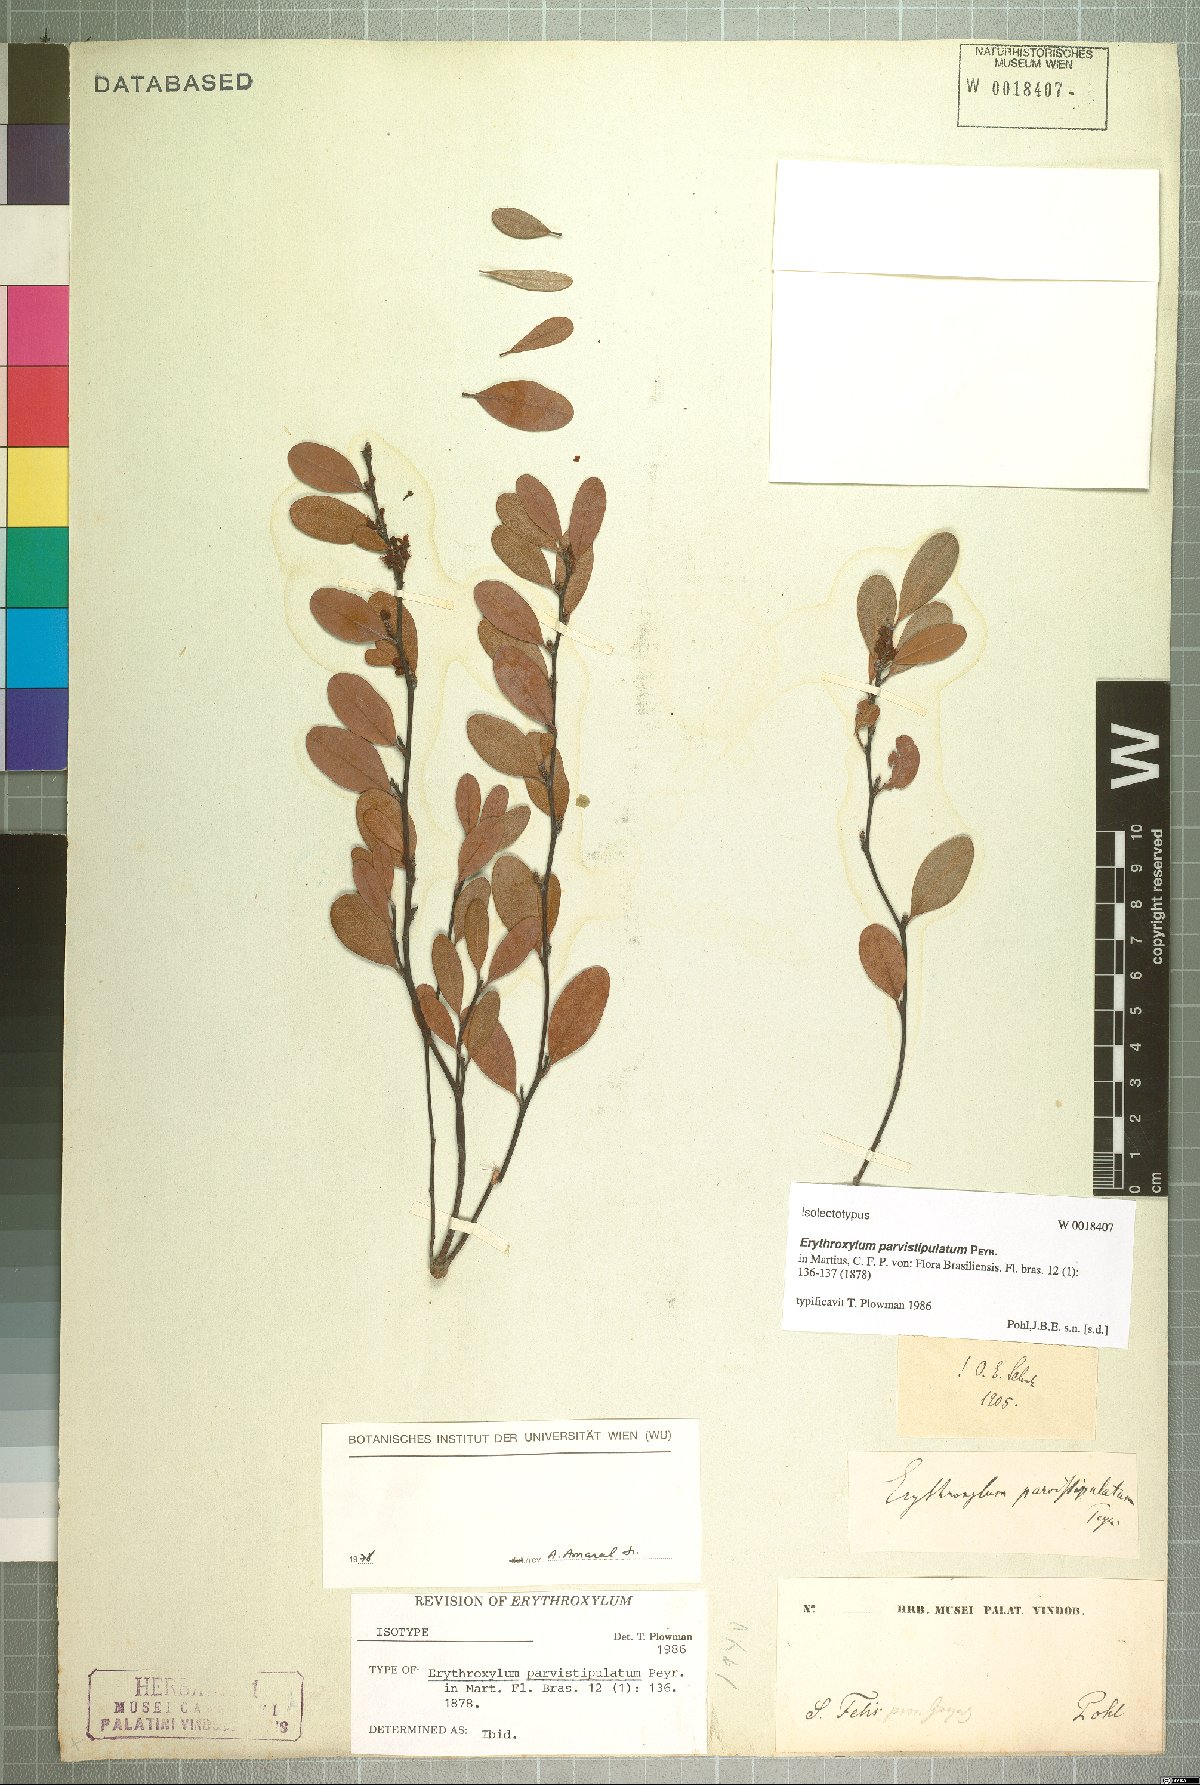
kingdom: Plantae
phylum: Tracheophyta
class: Magnoliopsida
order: Malpighiales
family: Erythroxylaceae
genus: Erythroxylum
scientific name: Erythroxylum parvistipulatum
